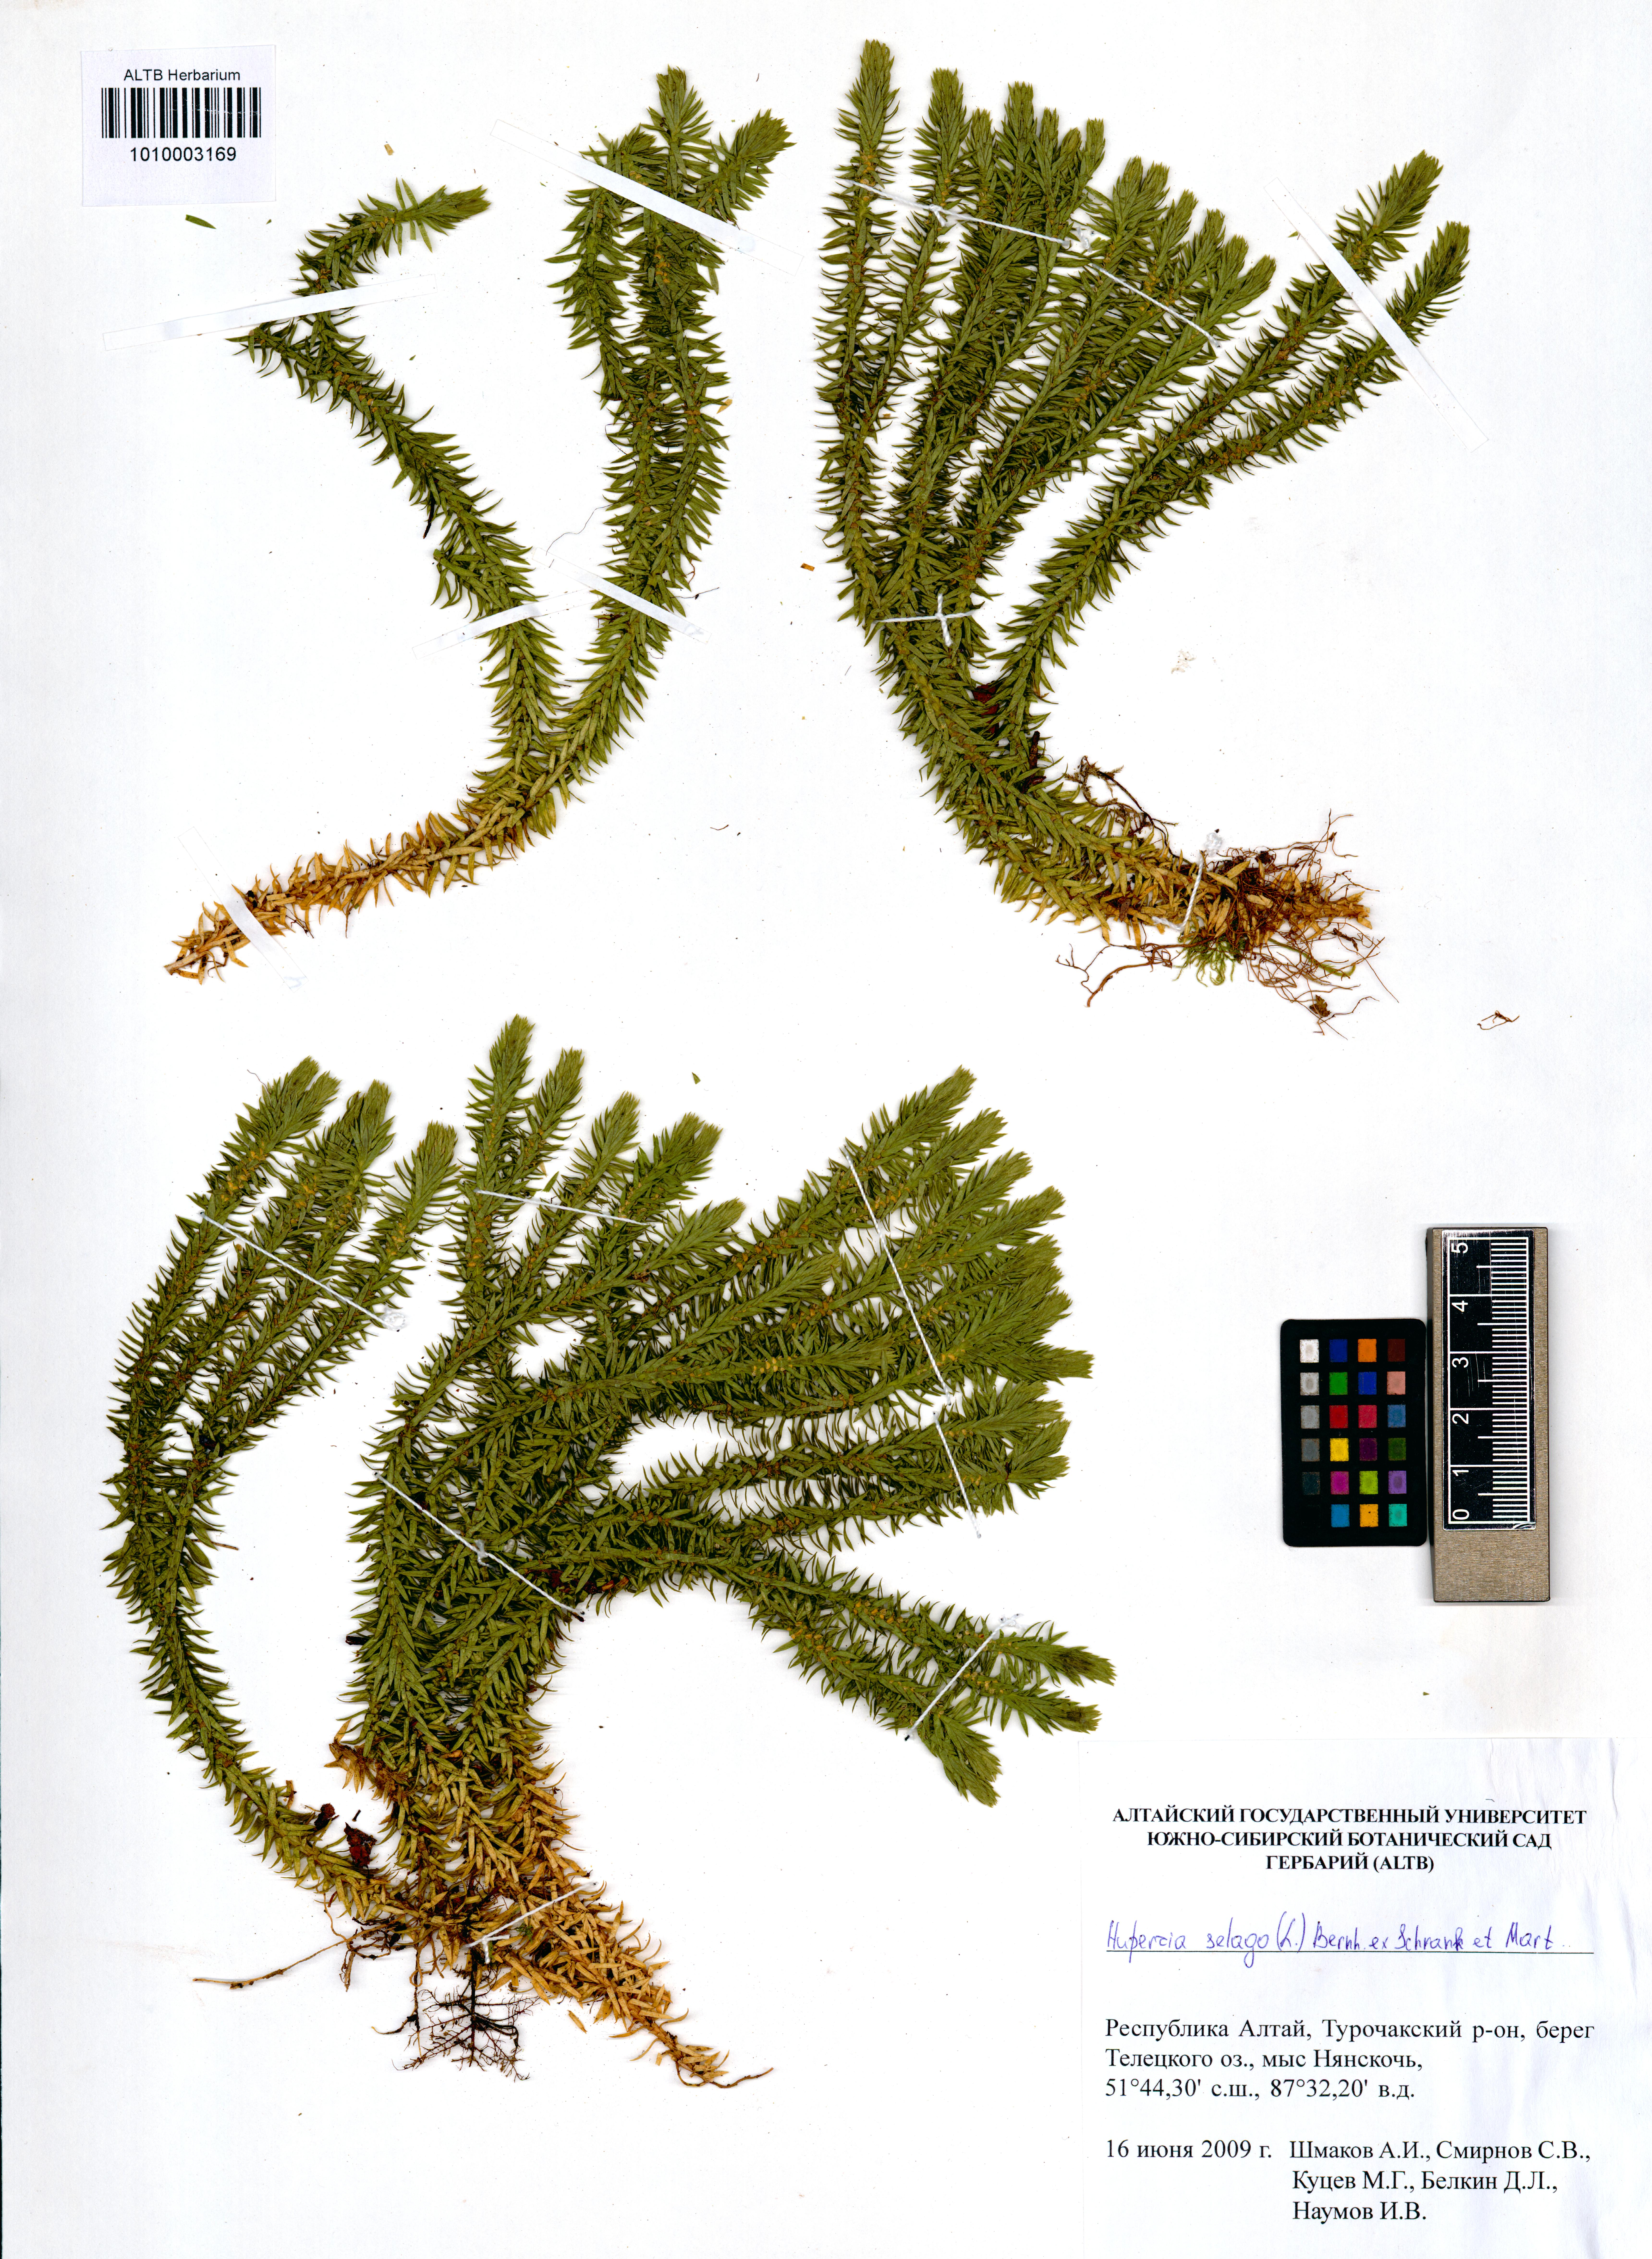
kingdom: Plantae
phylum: Tracheophyta
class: Lycopodiopsida
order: Lycopodiales
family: Lycopodiaceae
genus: Huperzia
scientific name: Huperzia selago
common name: Northern firmoss
